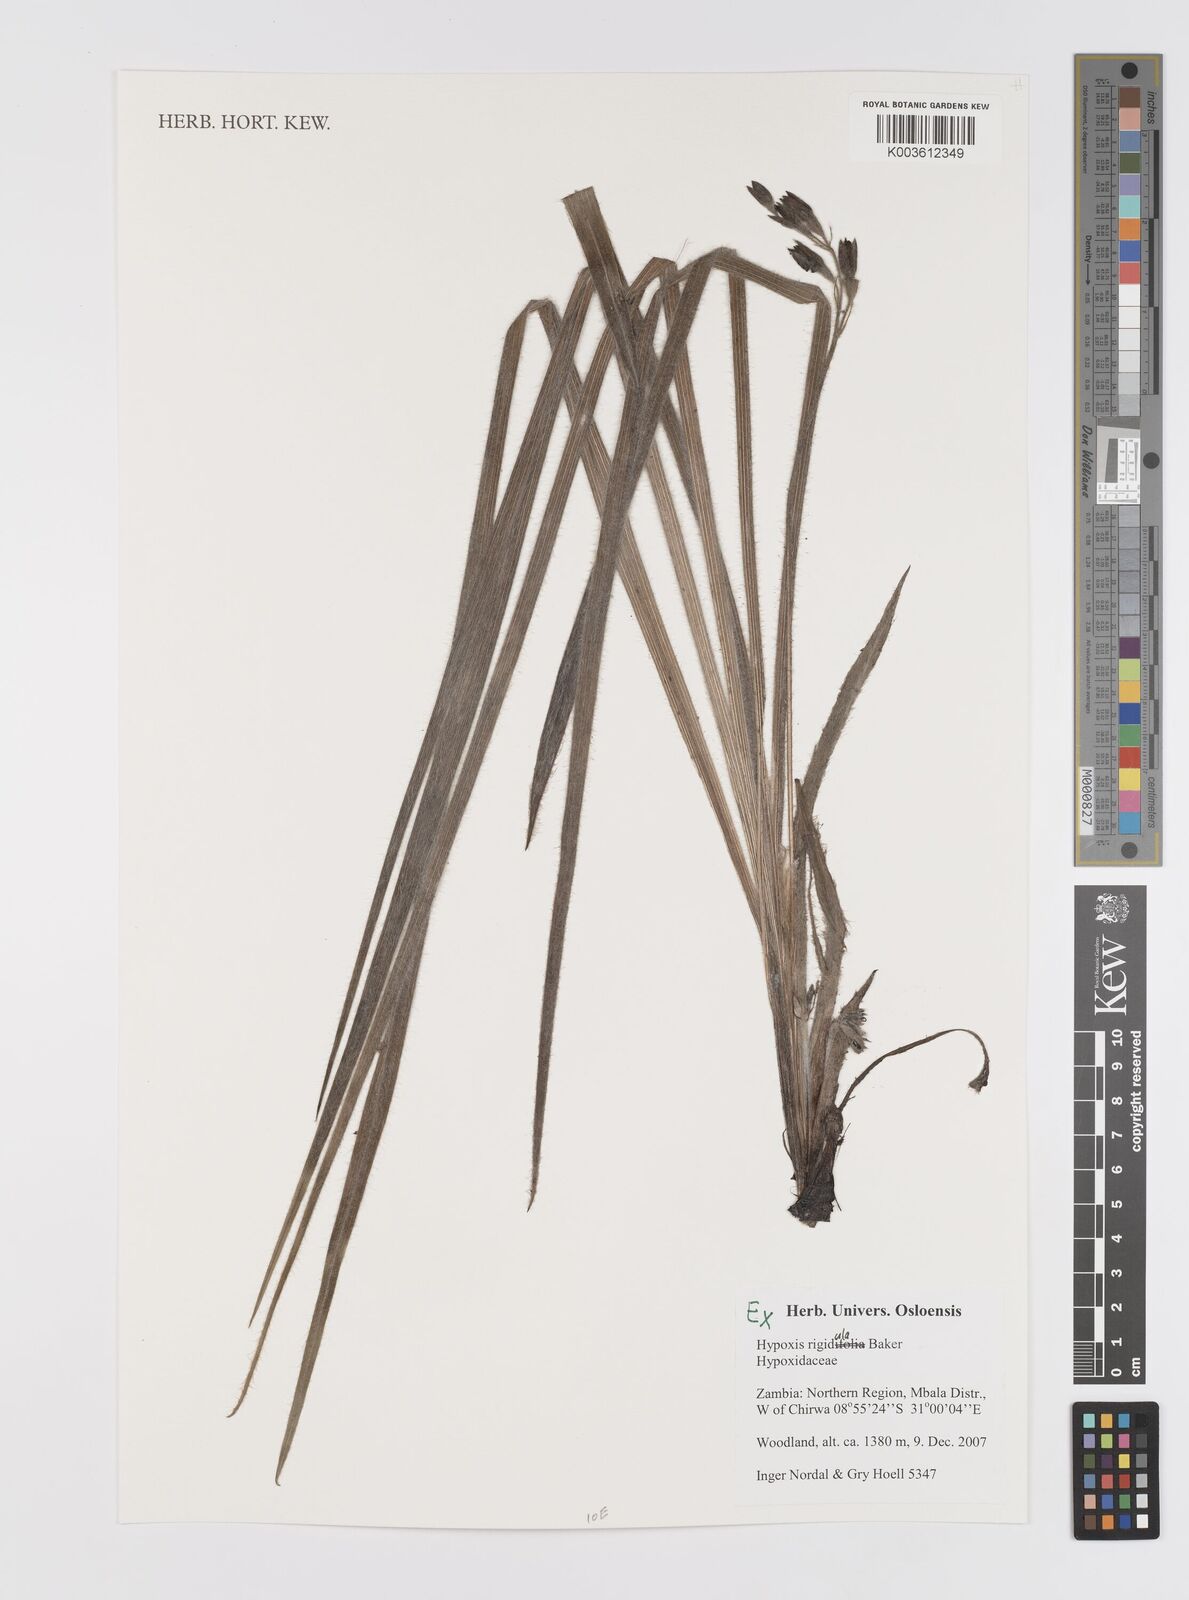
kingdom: Plantae
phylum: Tracheophyta
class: Liliopsida
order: Asparagales
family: Hypoxidaceae
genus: Hypoxis
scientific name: Hypoxis rigidula
